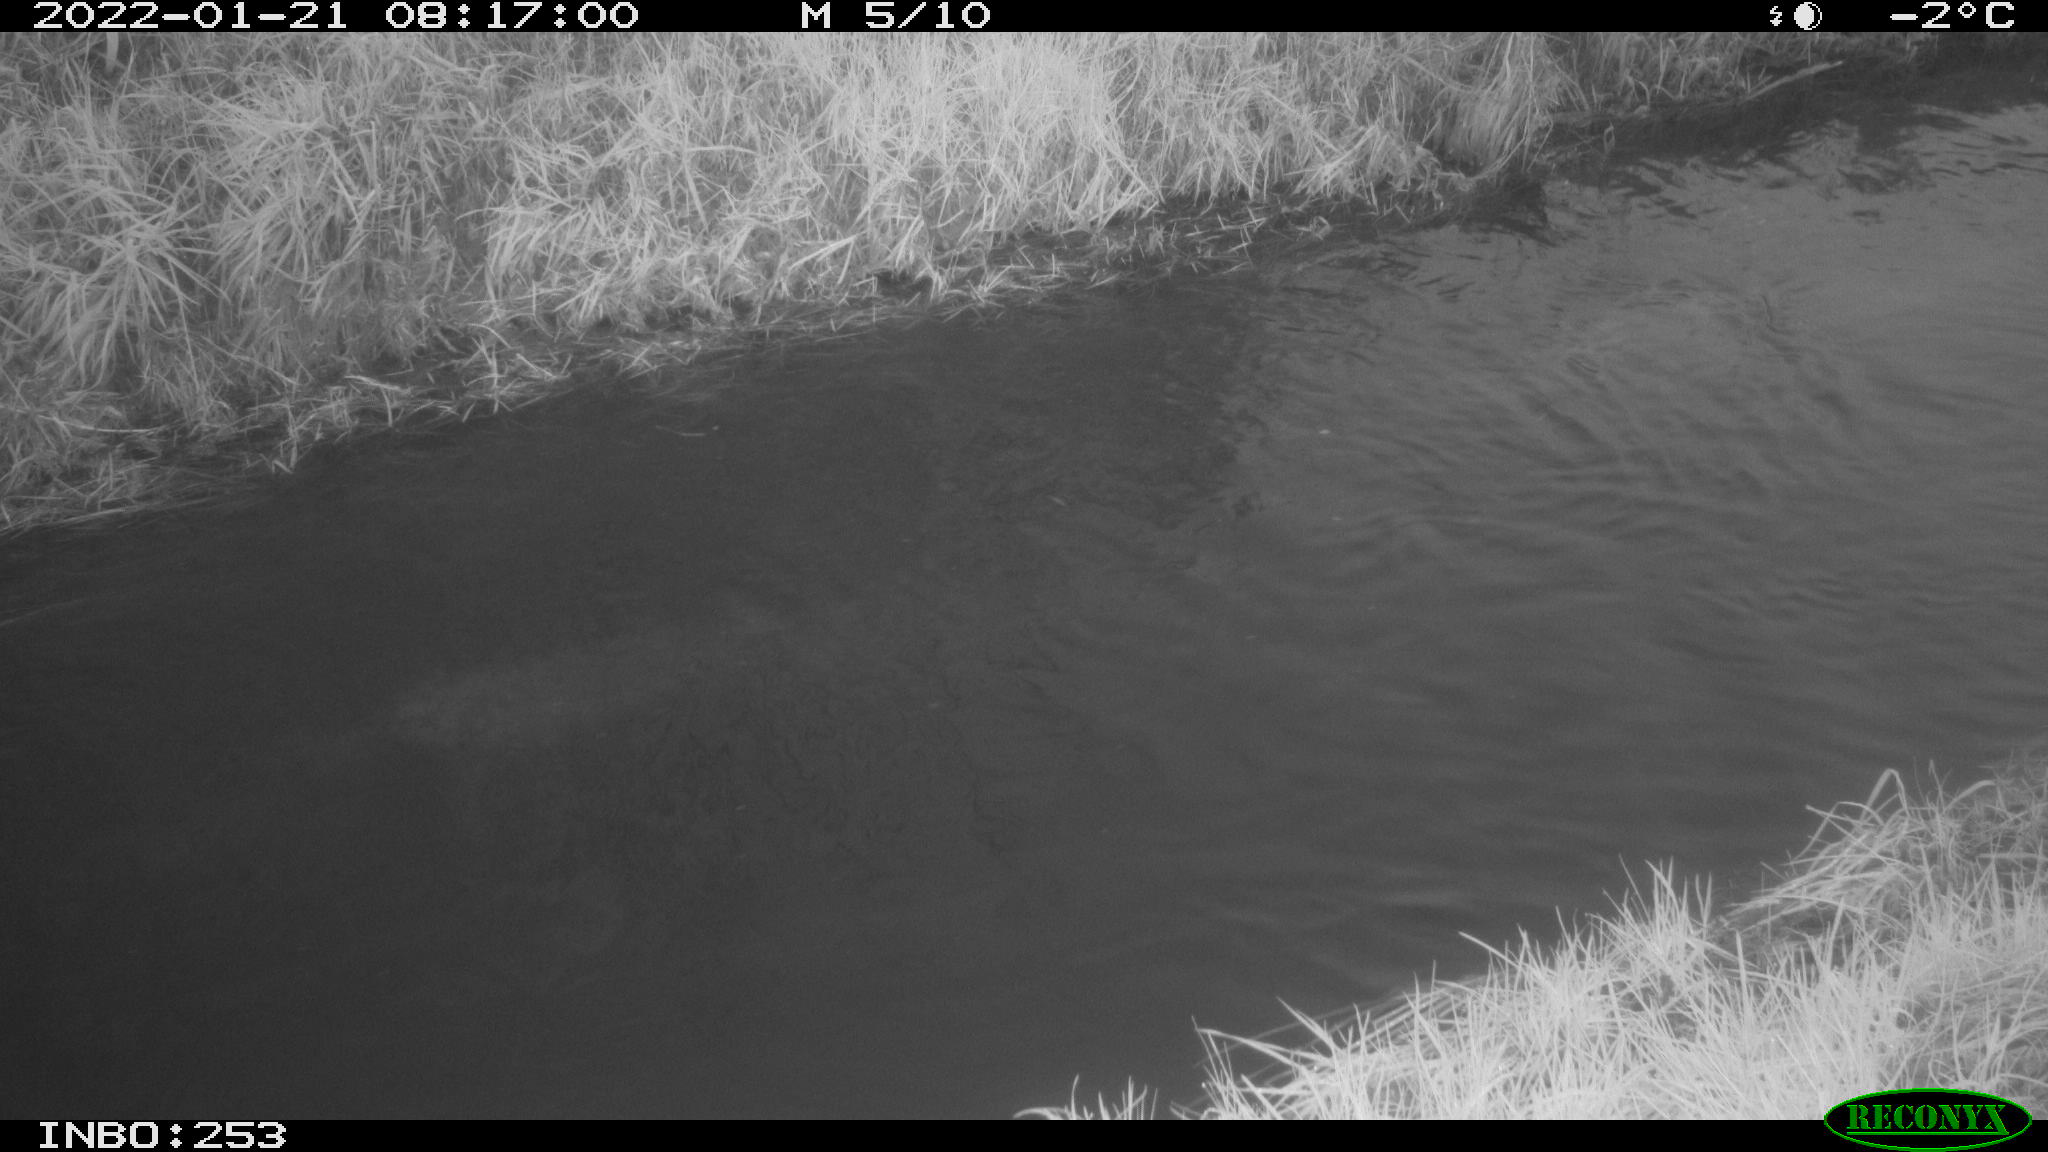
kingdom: Animalia
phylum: Chordata
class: Aves
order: Anseriformes
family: Anatidae
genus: Anas
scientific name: Anas platyrhynchos
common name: Mallard
